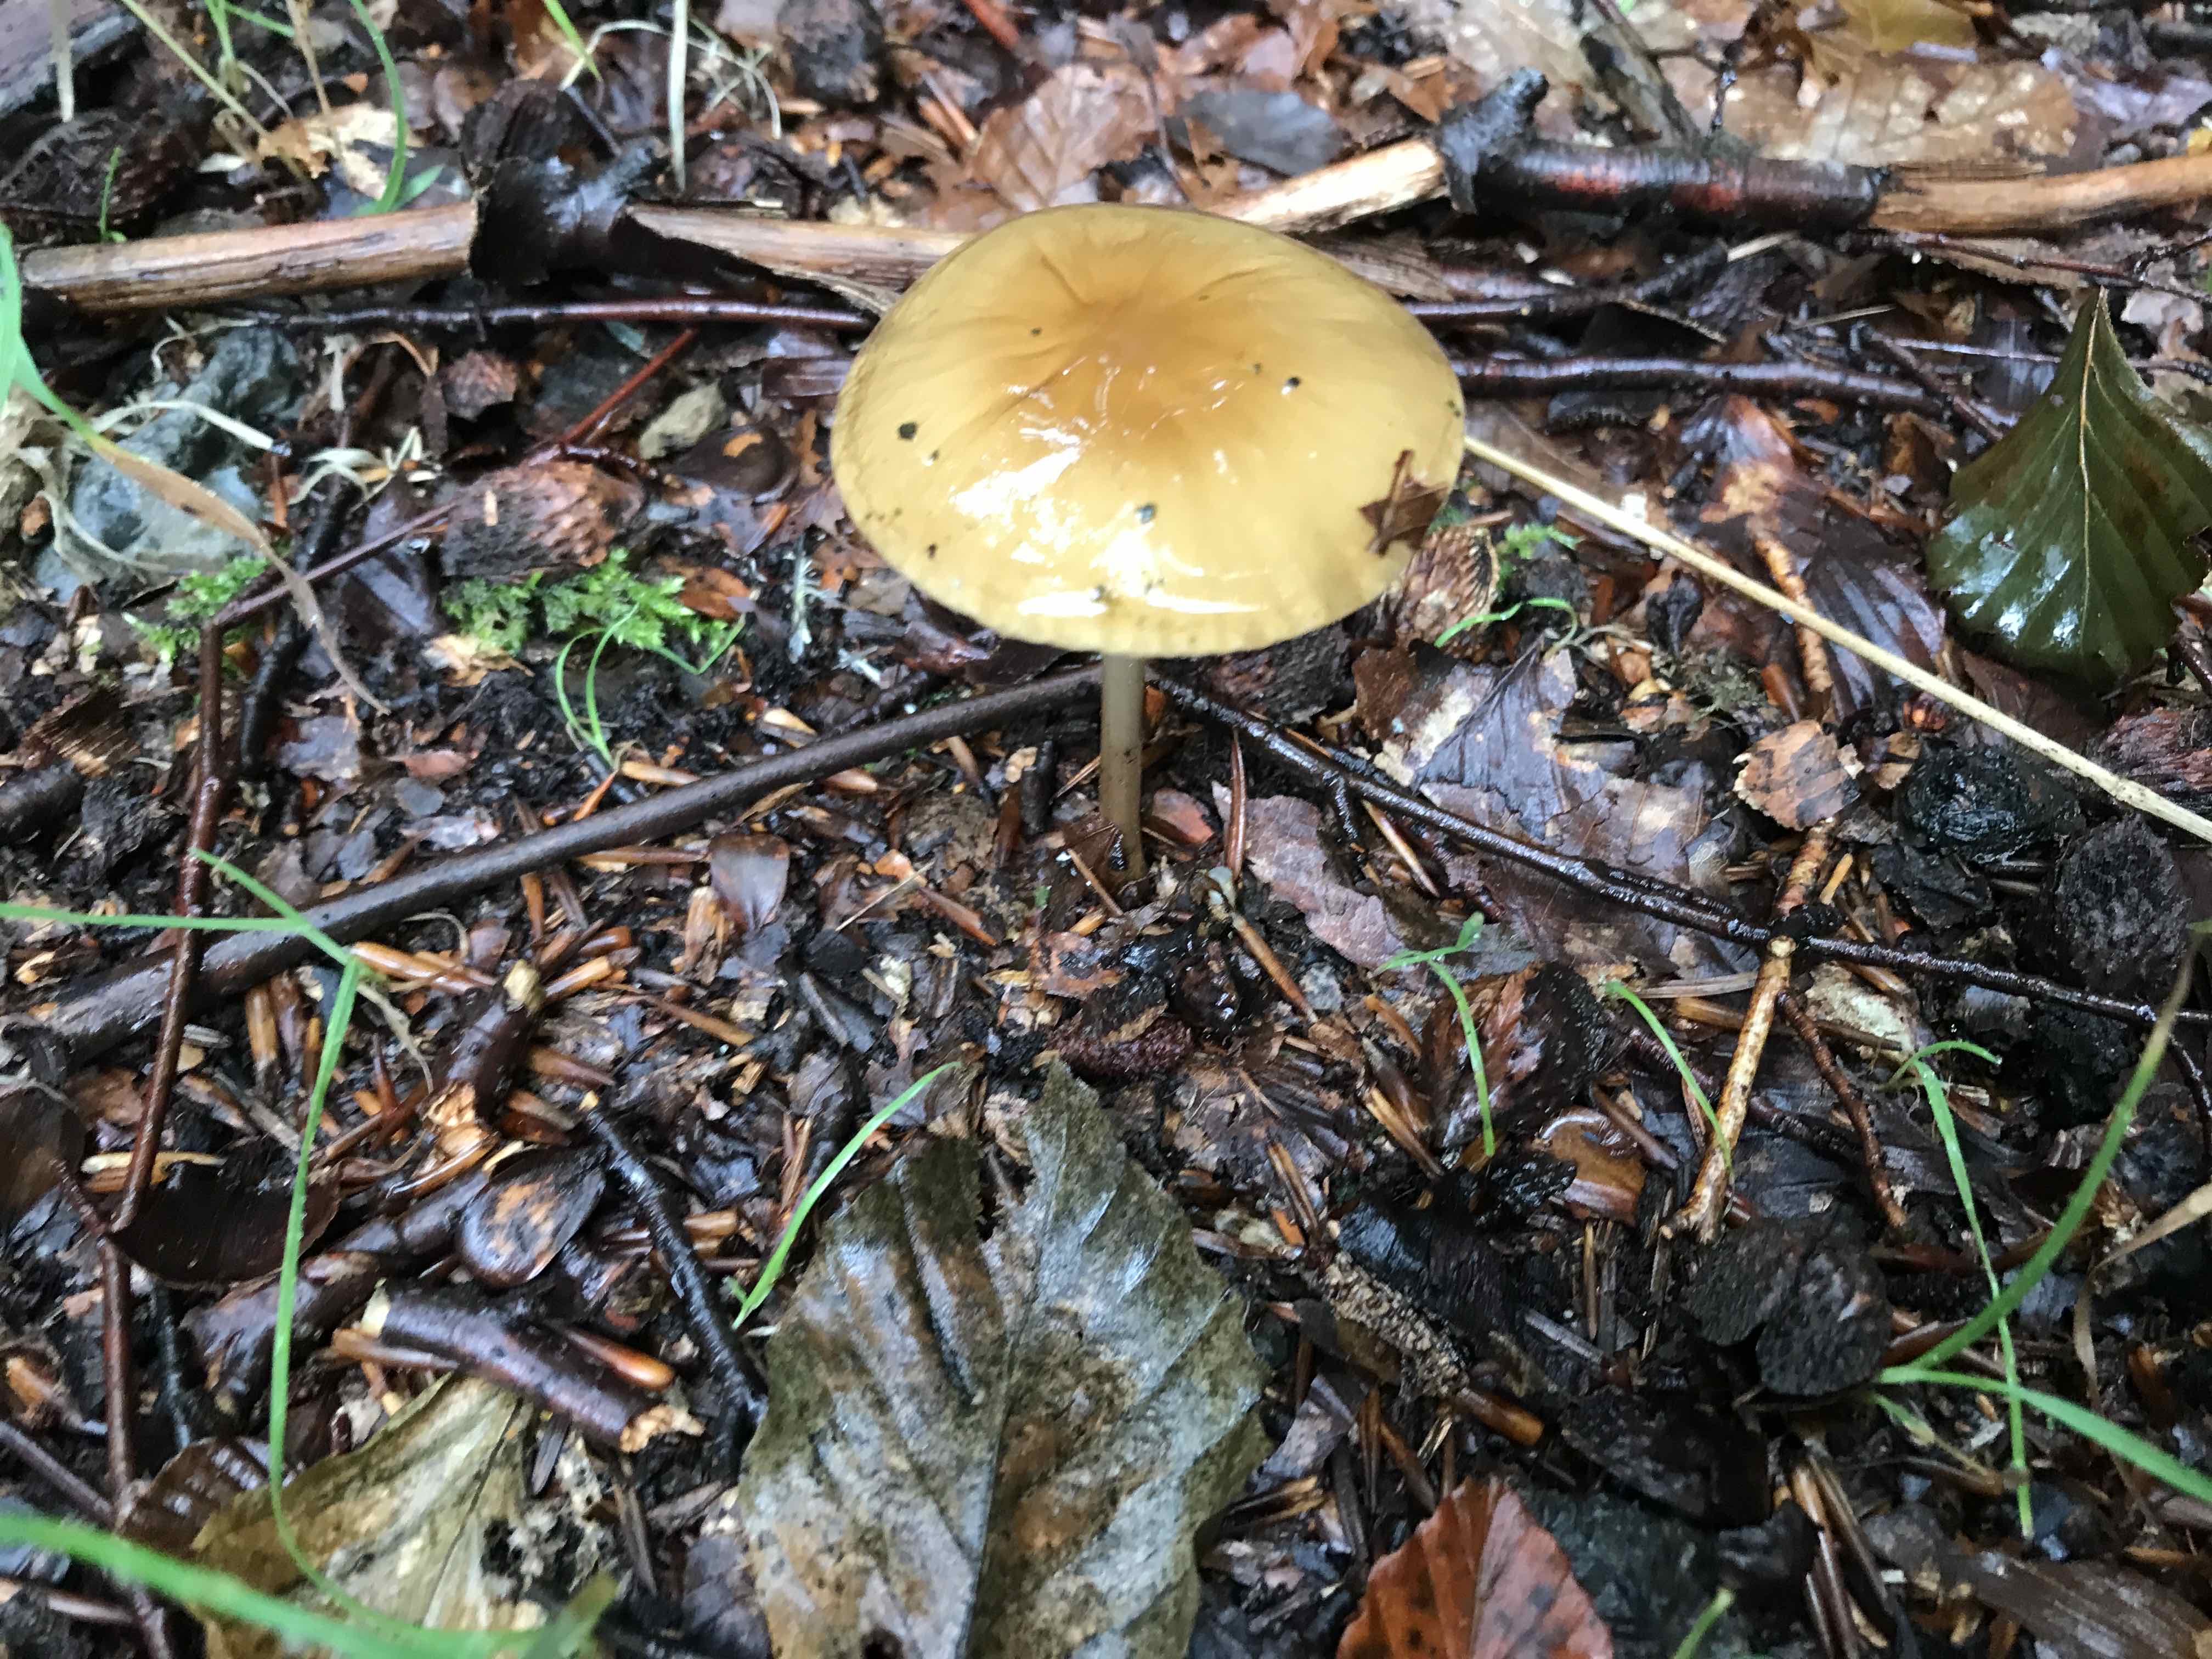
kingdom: Fungi
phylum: Basidiomycota
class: Agaricomycetes
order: Agaricales
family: Physalacriaceae
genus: Hymenopellis
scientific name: Hymenopellis radicata
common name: almindelig pælerodshat
